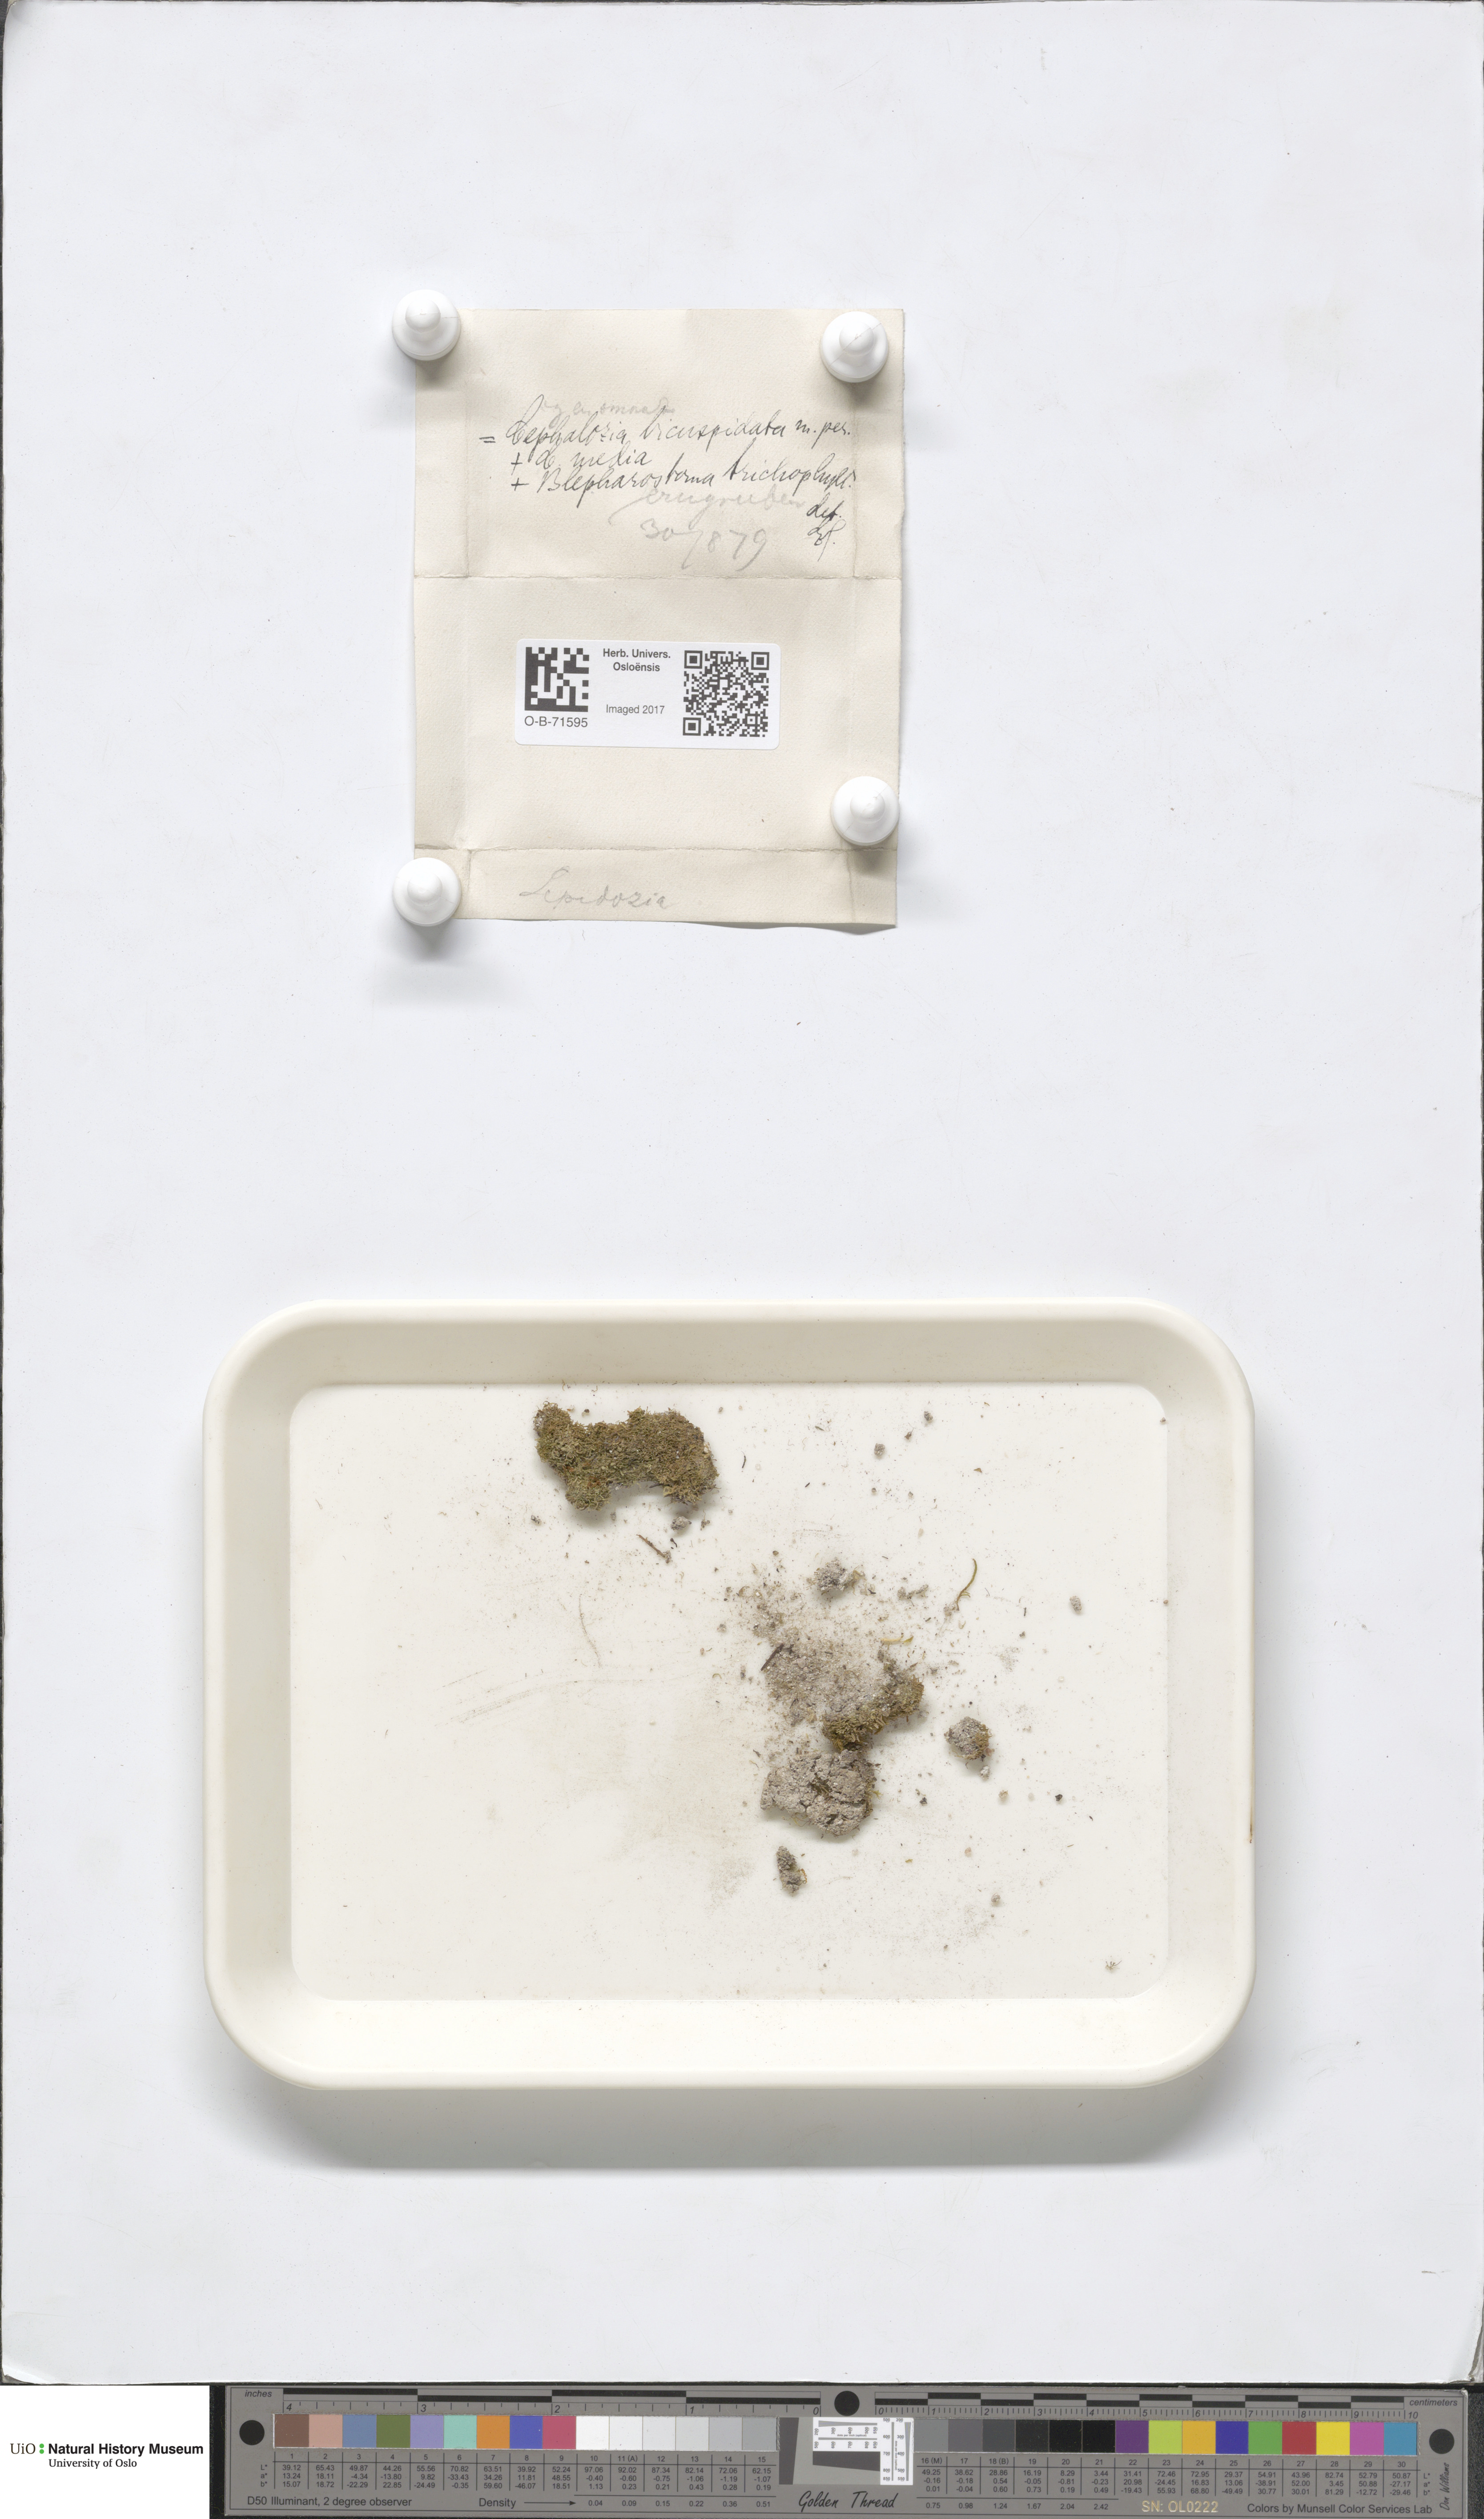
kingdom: Plantae
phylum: Marchantiophyta
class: Jungermanniopsida
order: Jungermanniales
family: Cephaloziaceae
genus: Cephalozia
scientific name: Cephalozia bicuspidata
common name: Two-horned pincerwort
